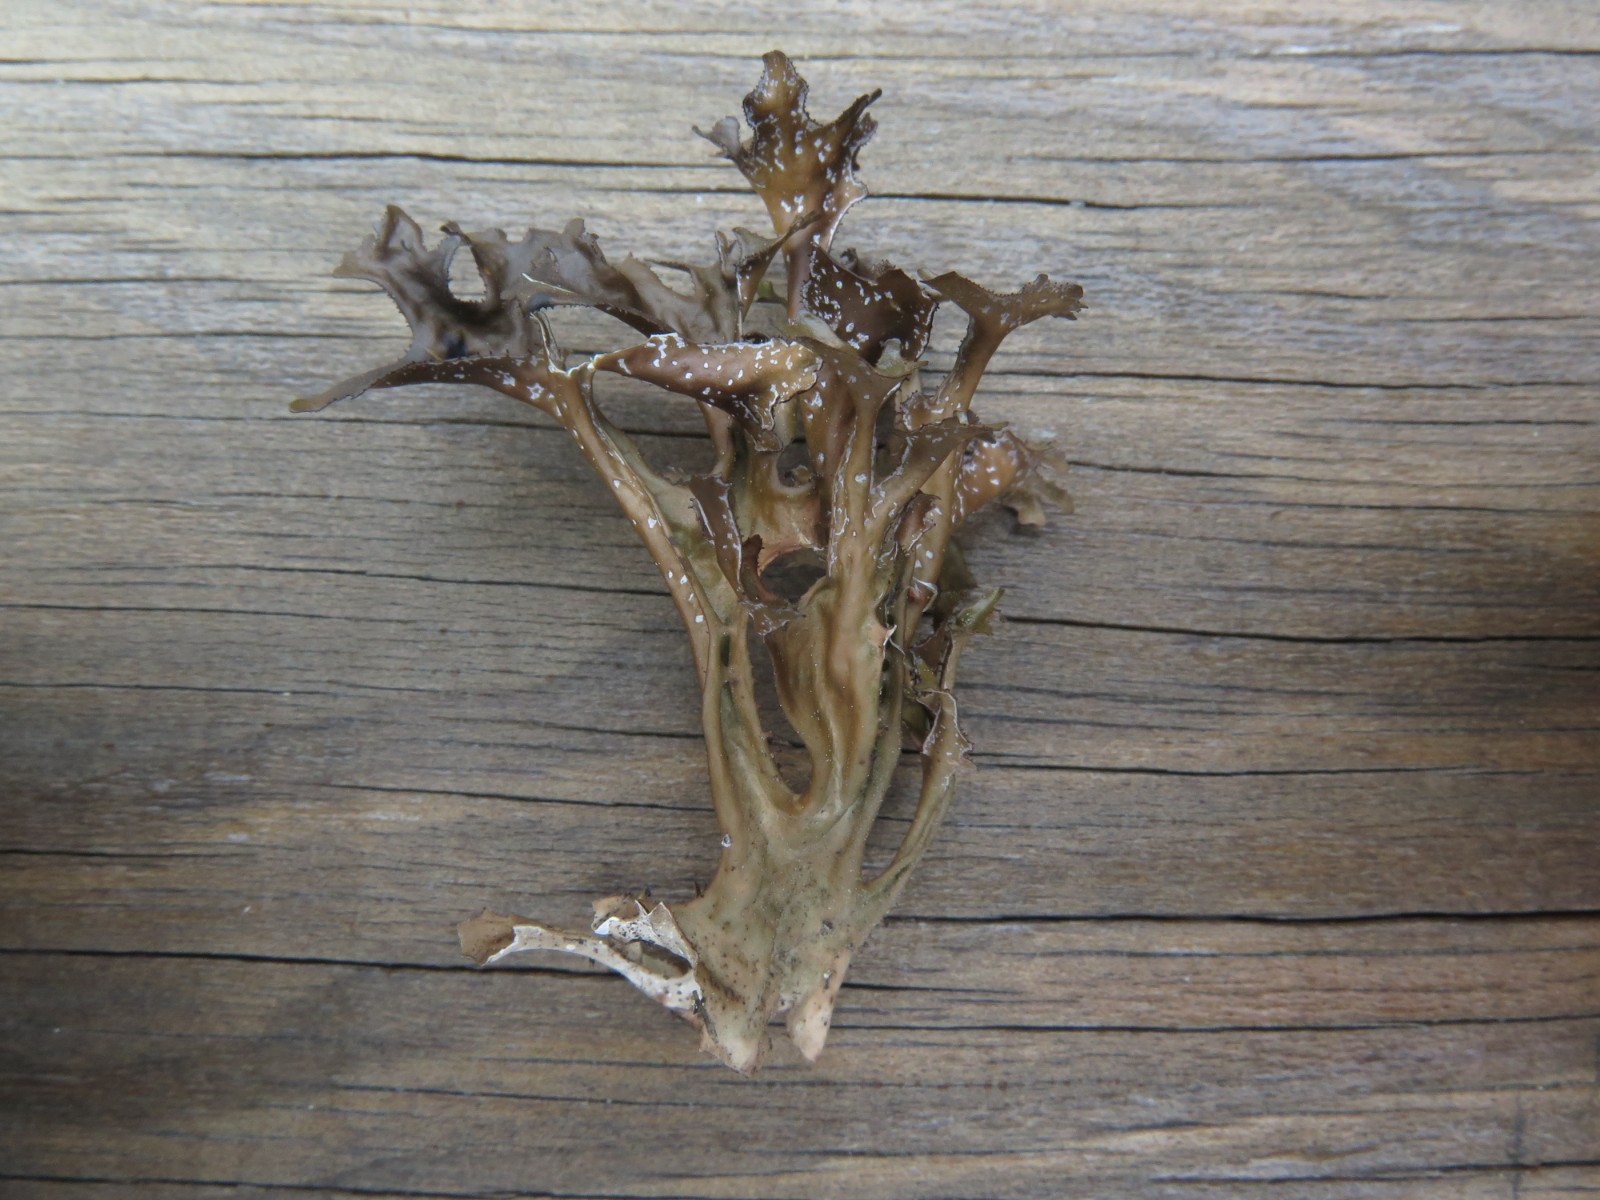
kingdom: Fungi
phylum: Ascomycota
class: Lecanoromycetes
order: Lecanorales
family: Parmeliaceae
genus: Cetraria
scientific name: Cetraria islandica
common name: islandsk kruslav
